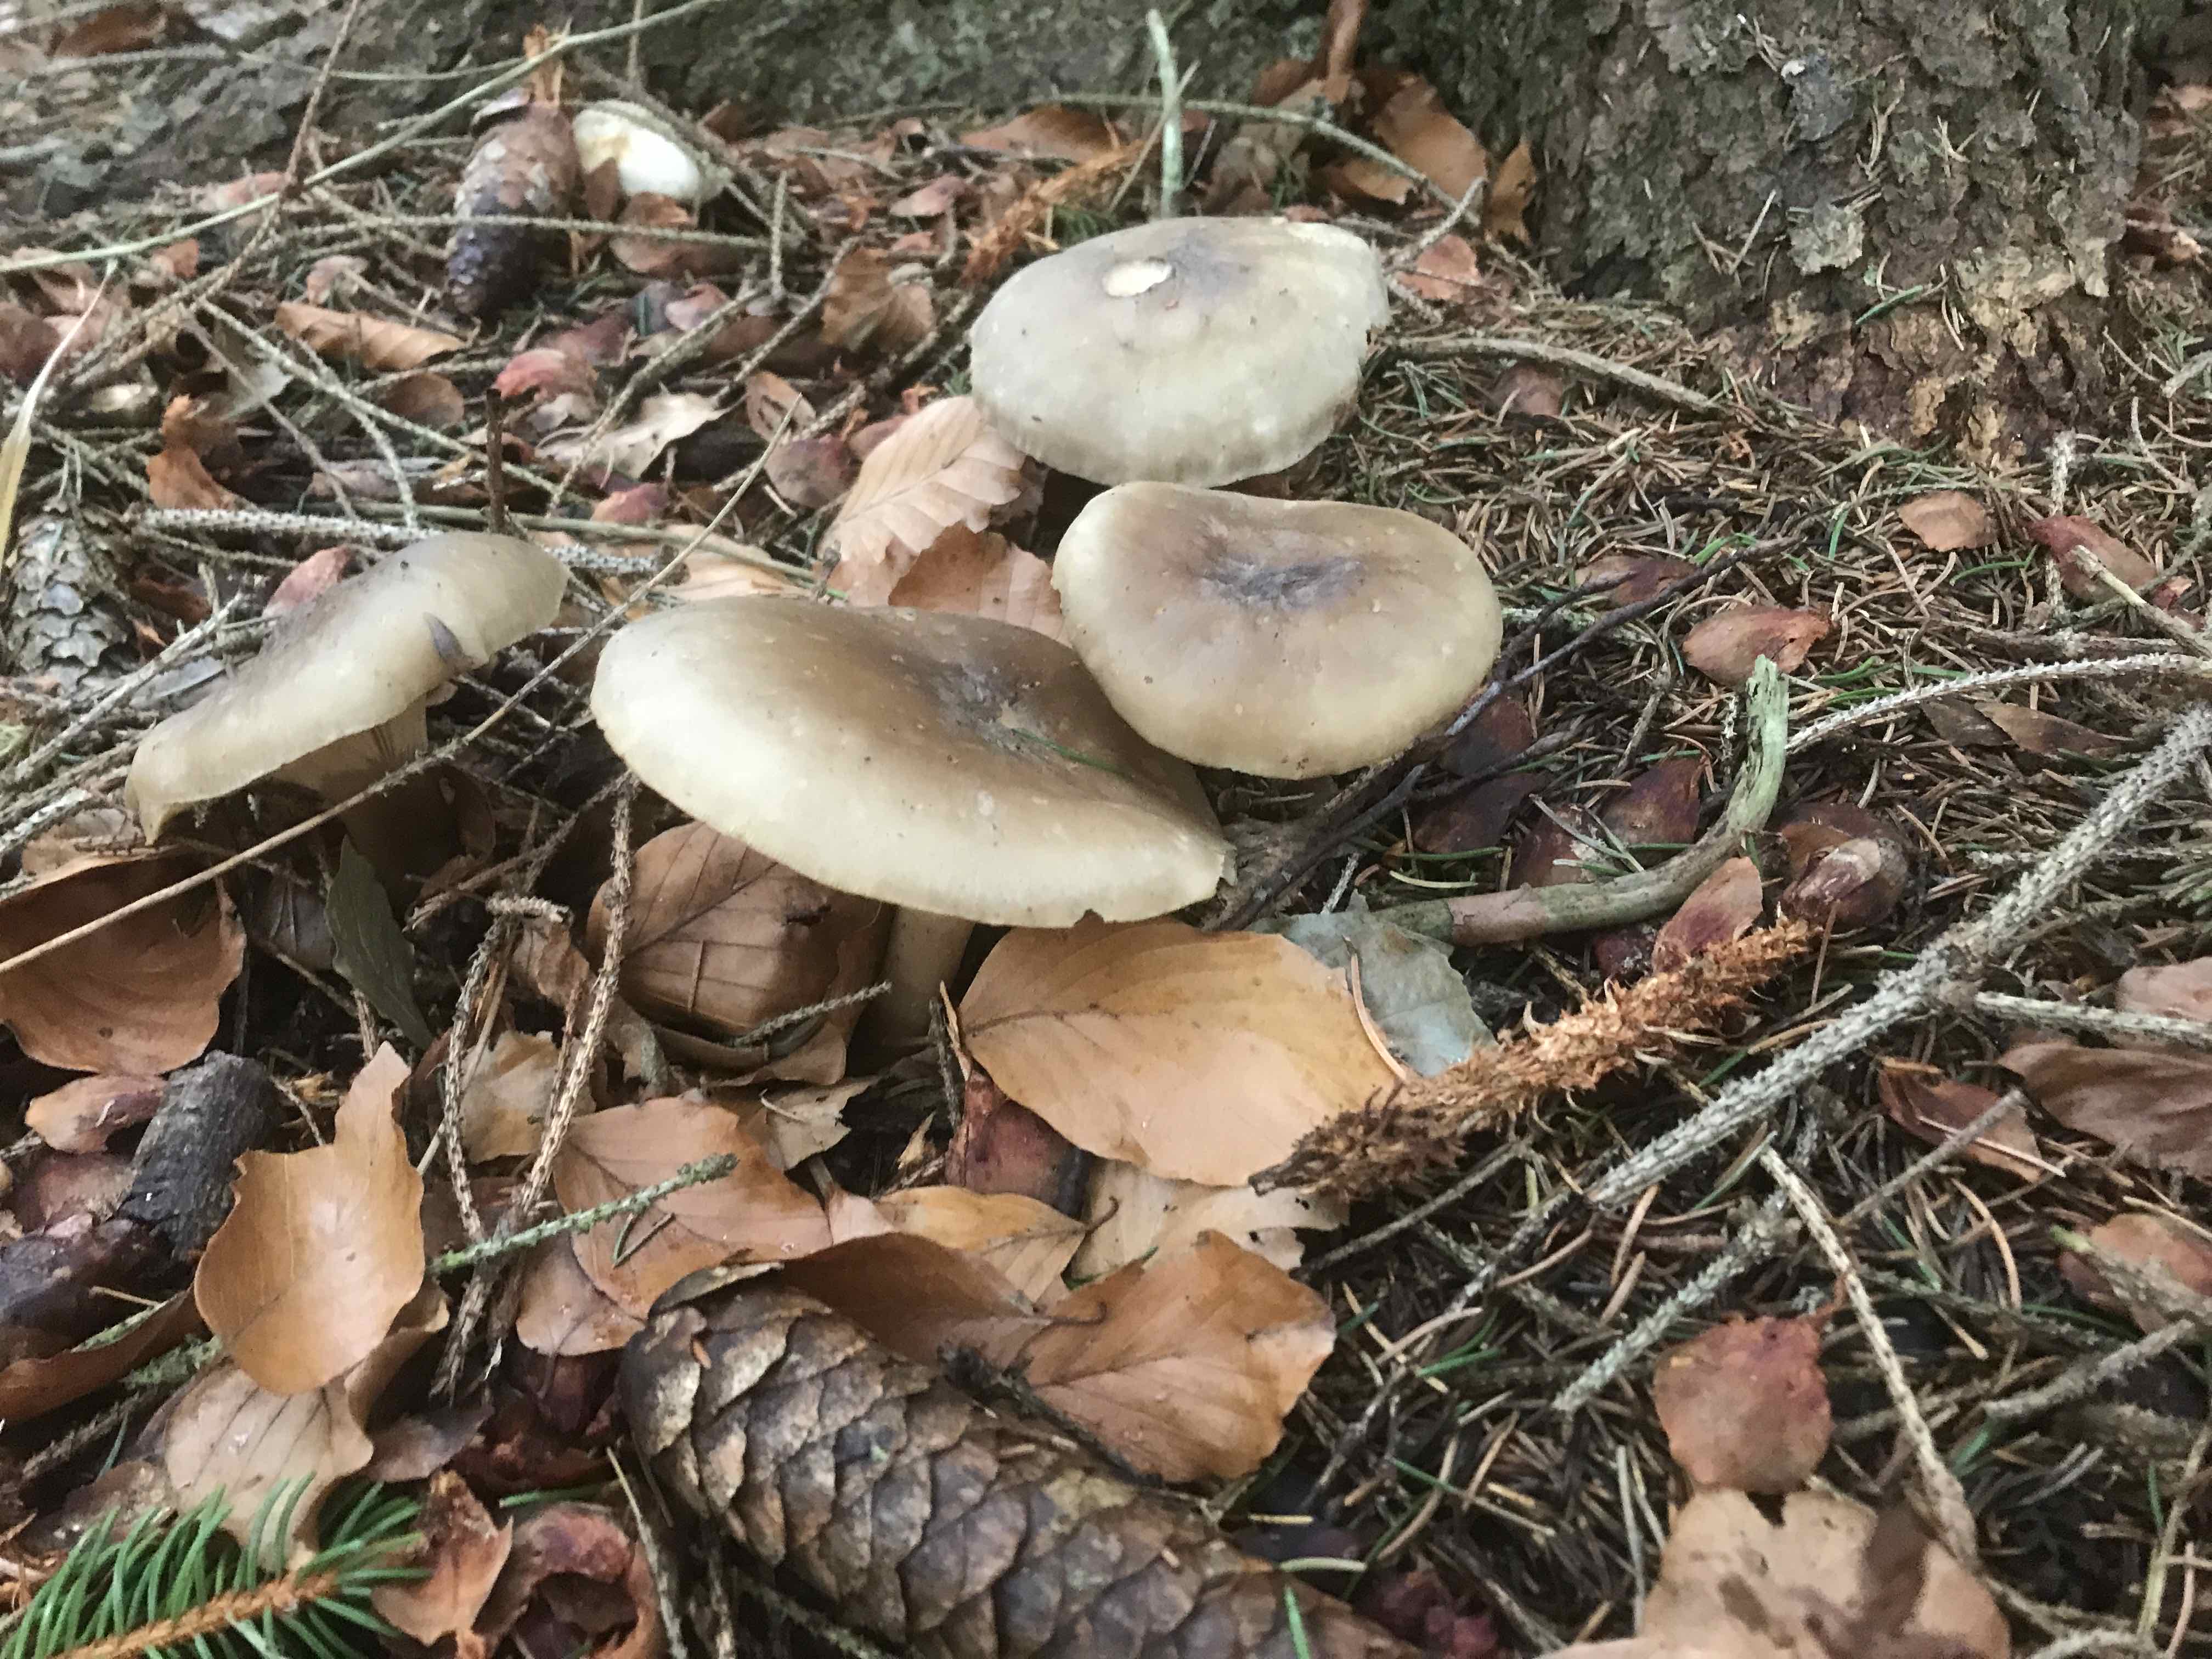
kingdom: Fungi
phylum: Basidiomycota
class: Agaricomycetes
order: Agaricales
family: Tricholomataceae
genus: Clitocybe
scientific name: Clitocybe nebularis
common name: tåge-tragthat
